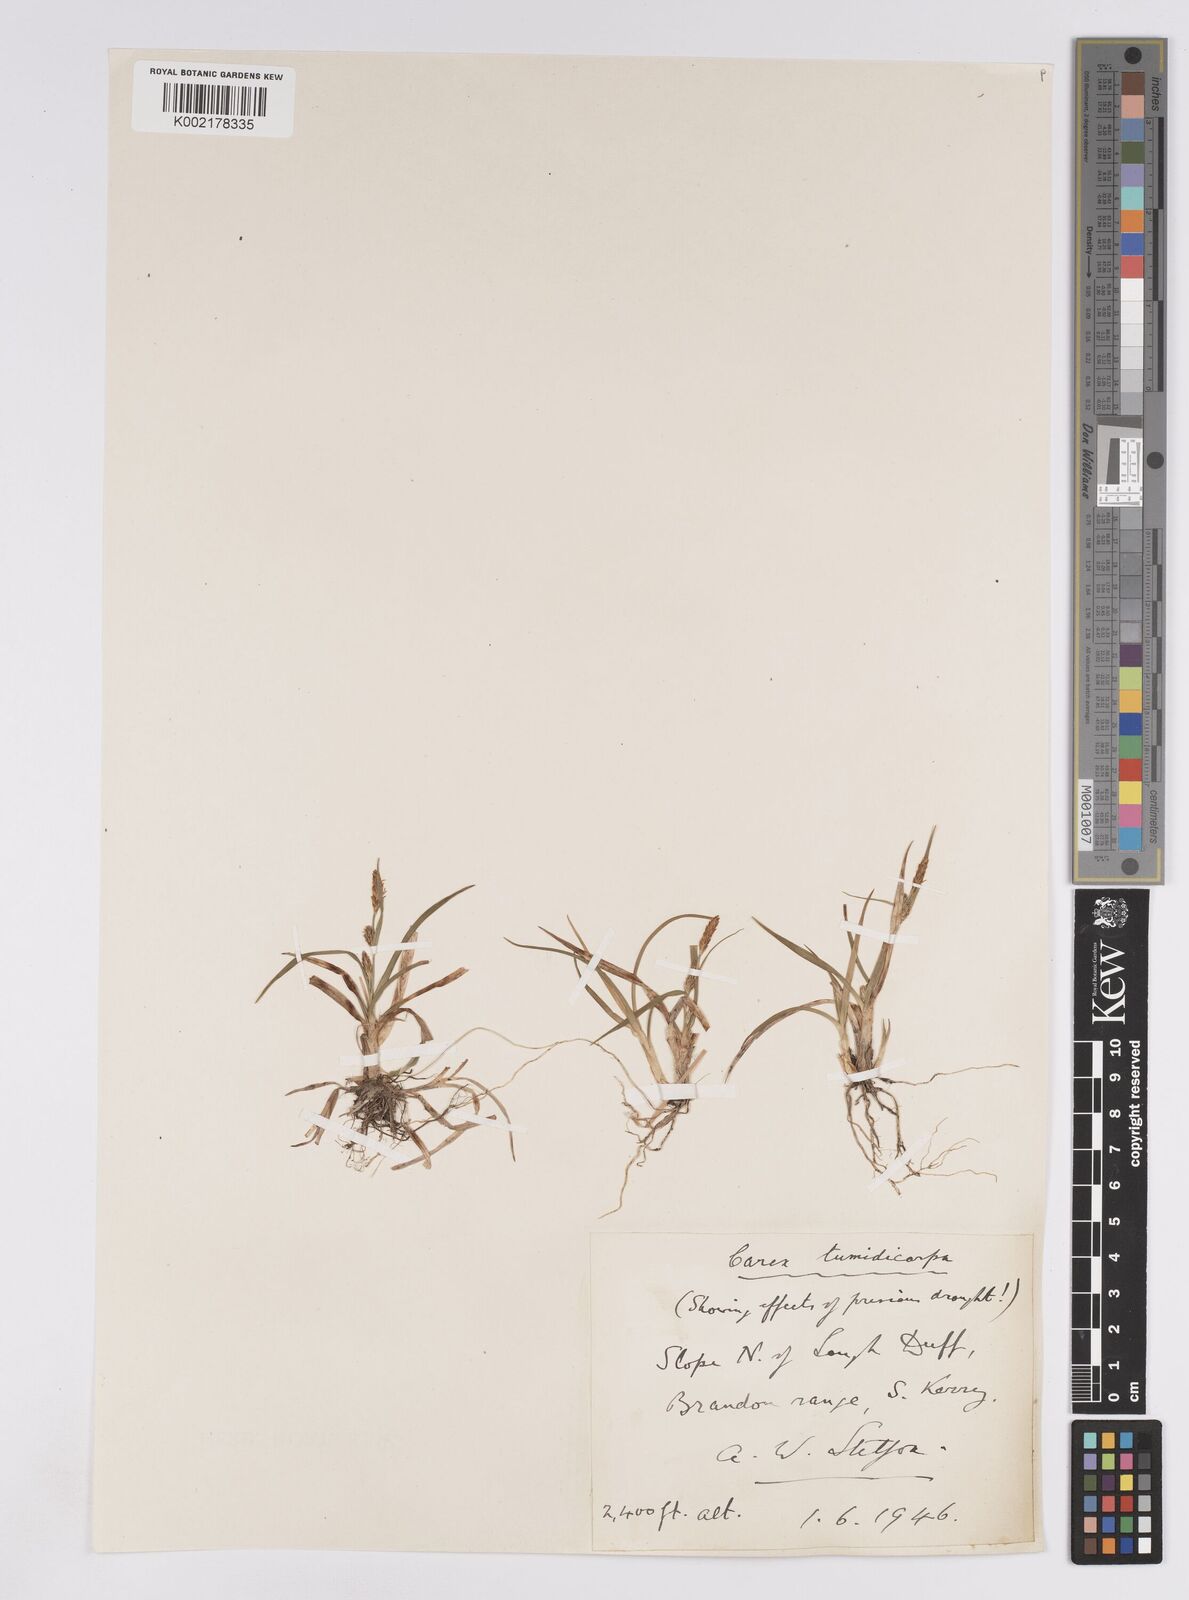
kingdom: Plantae
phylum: Tracheophyta
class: Liliopsida
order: Poales
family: Cyperaceae
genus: Carex
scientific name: Carex demissa
